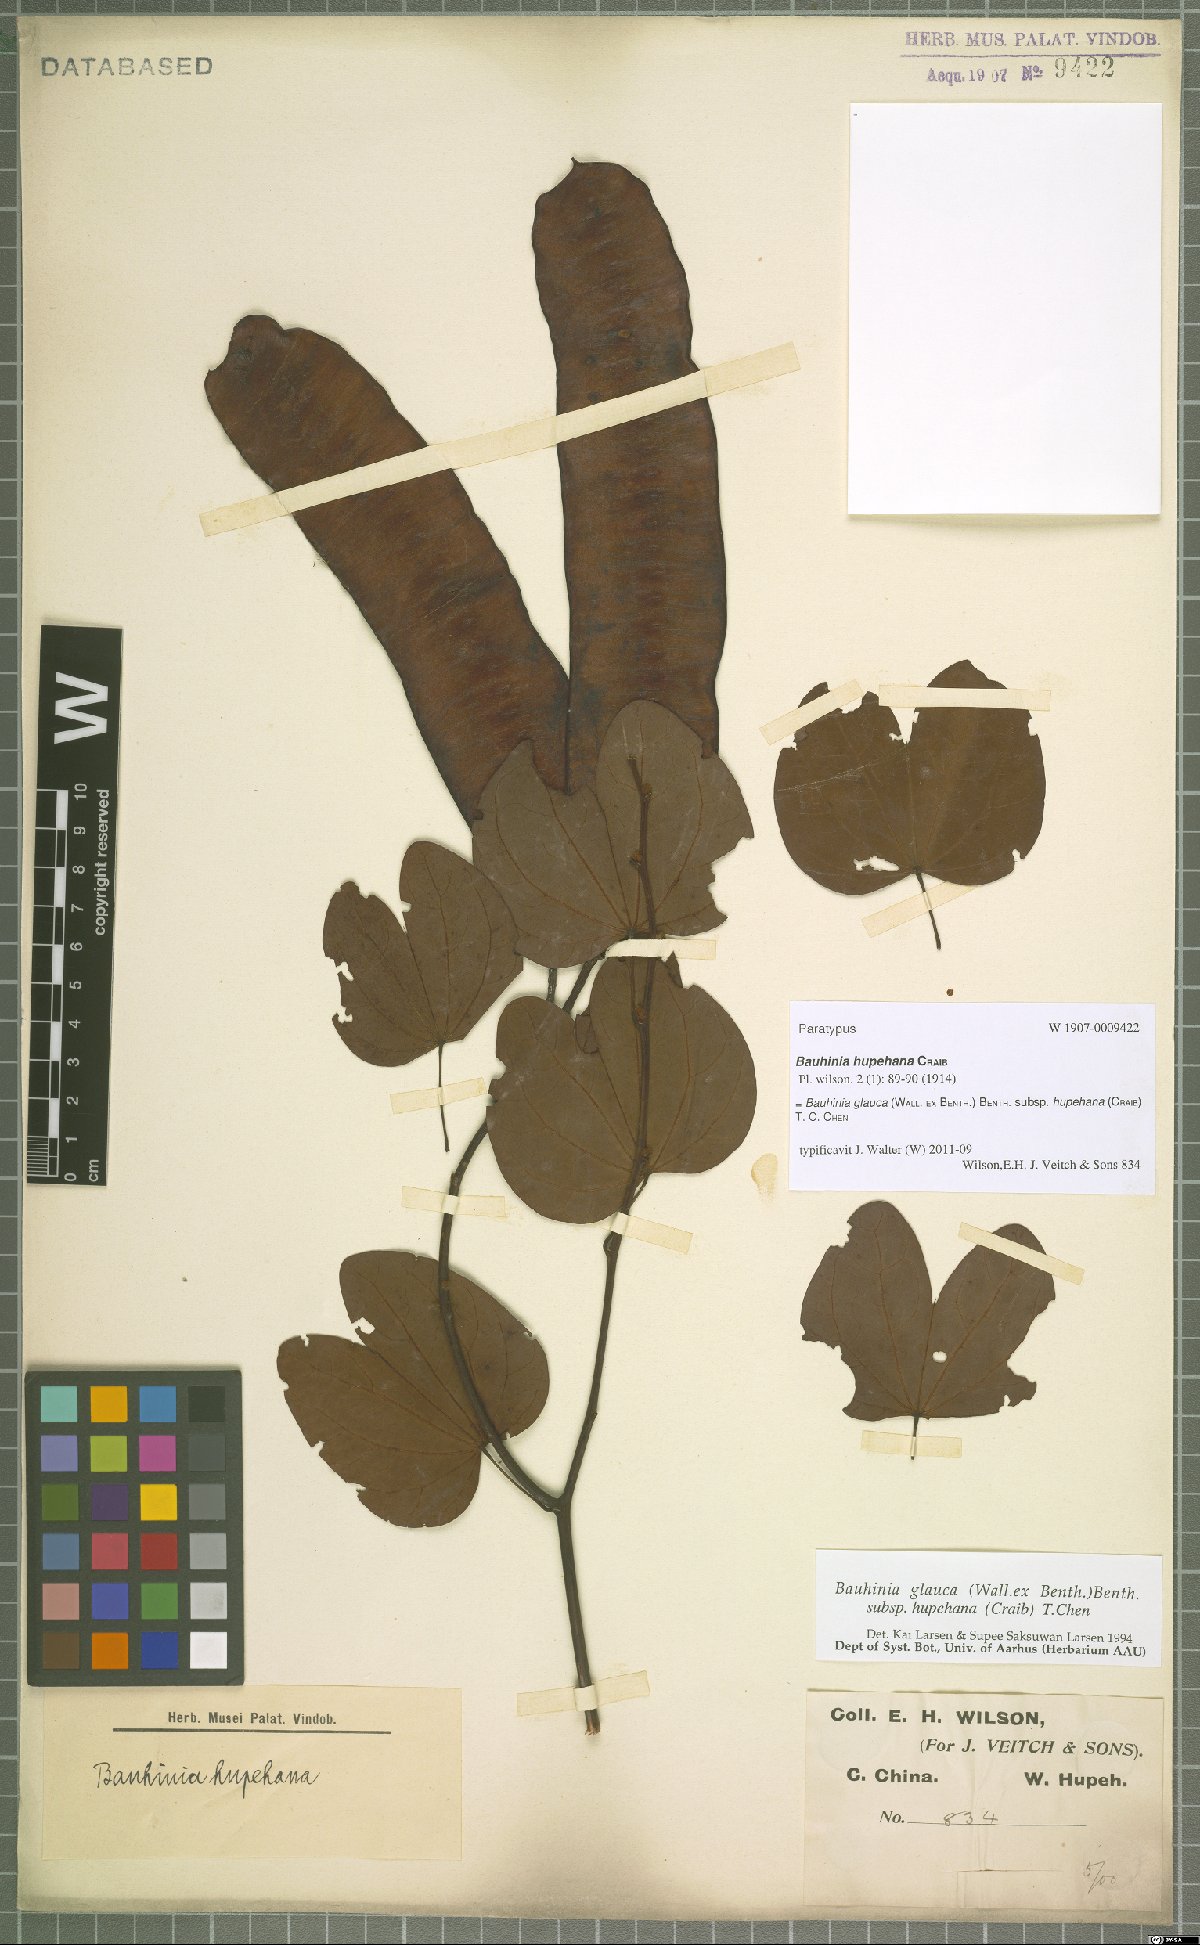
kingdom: Plantae
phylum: Tracheophyta
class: Magnoliopsida
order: Fabales
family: Fabaceae
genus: Cheniella
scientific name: Cheniella tenuiflora
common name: Bauhinia
